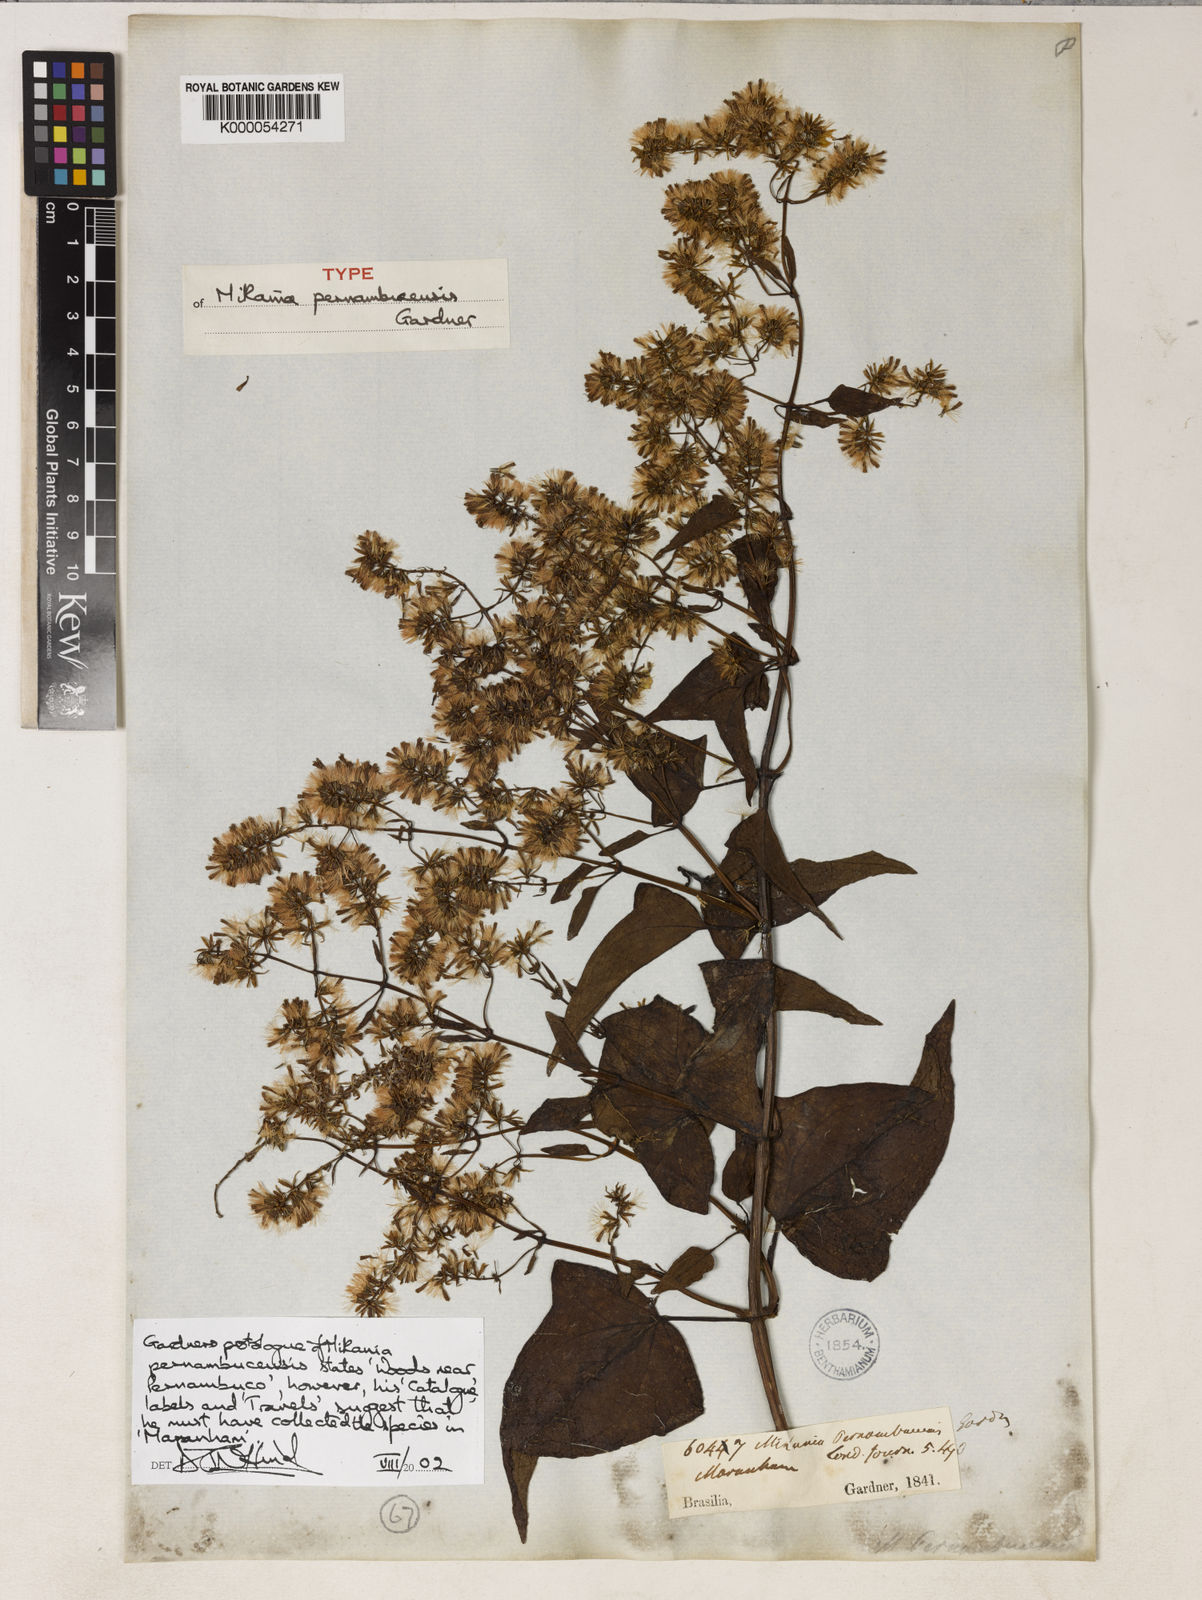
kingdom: Plantae
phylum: Tracheophyta
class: Magnoliopsida
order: Asterales
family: Asteraceae
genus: Mikania
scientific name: Mikania pernambucensis
